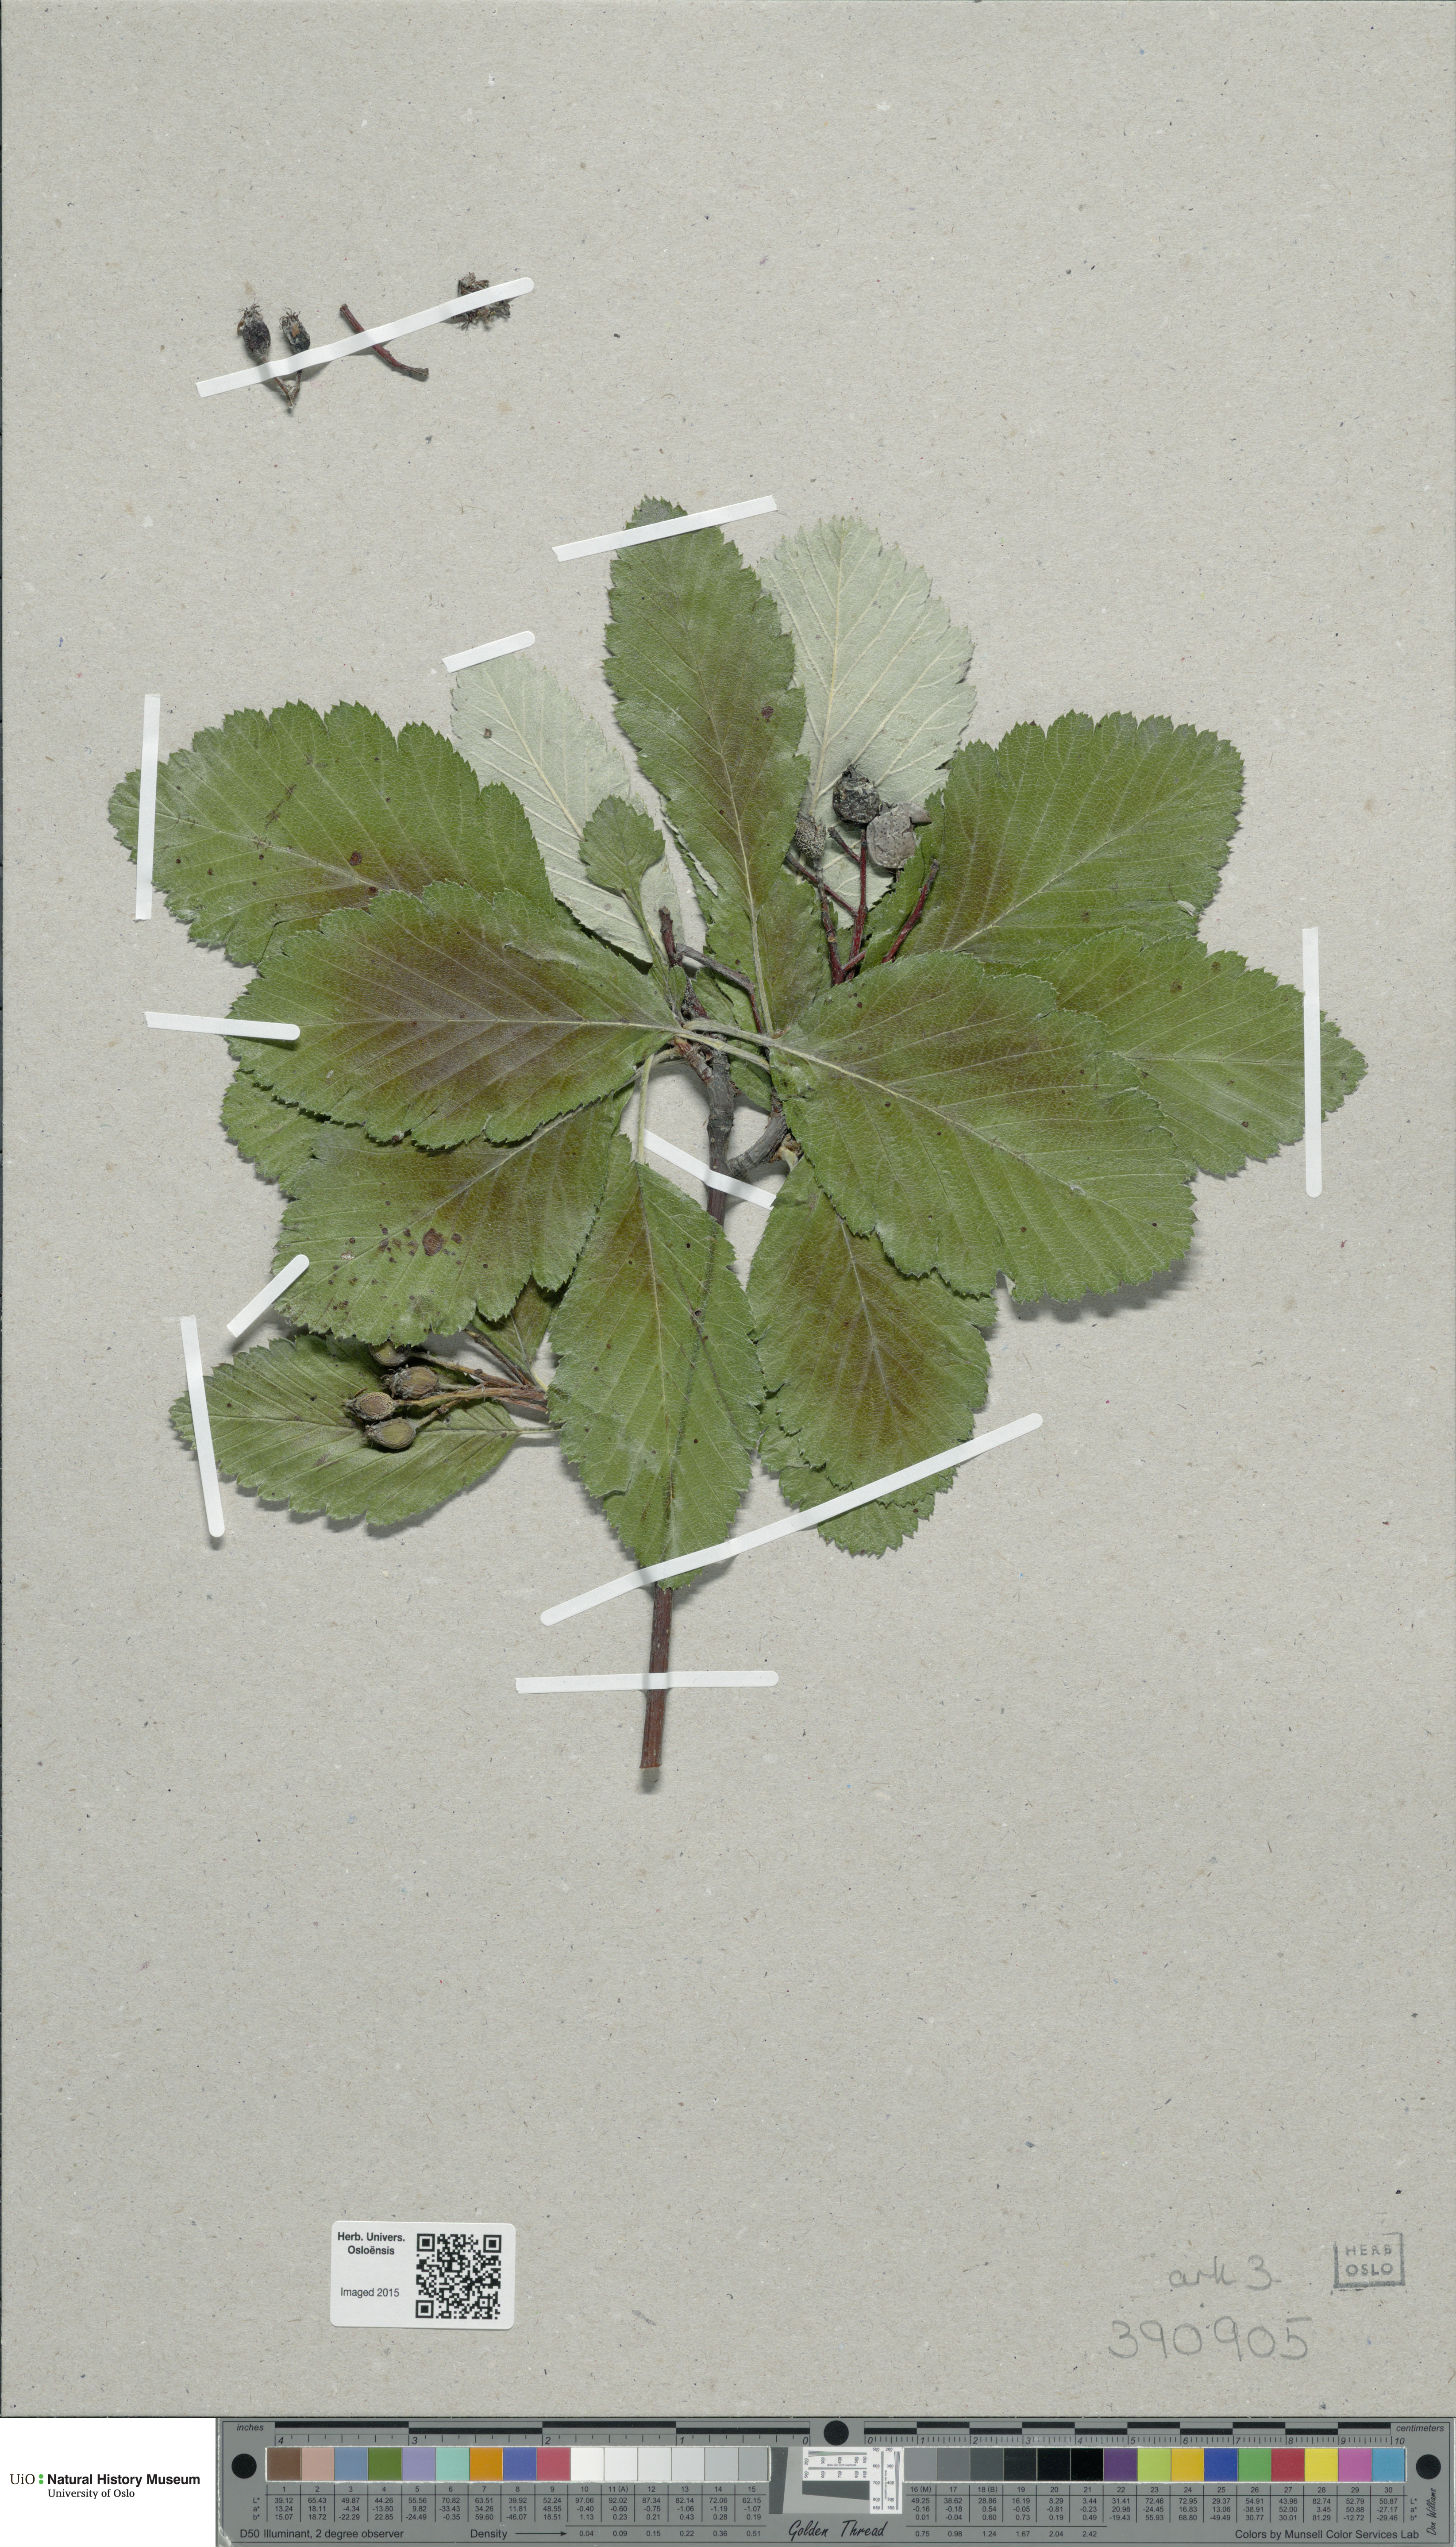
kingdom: Plantae
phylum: Tracheophyta
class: Magnoliopsida
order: Rosales
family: Rosaceae
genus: Hedlundia
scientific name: Hedlundia mougeotii
